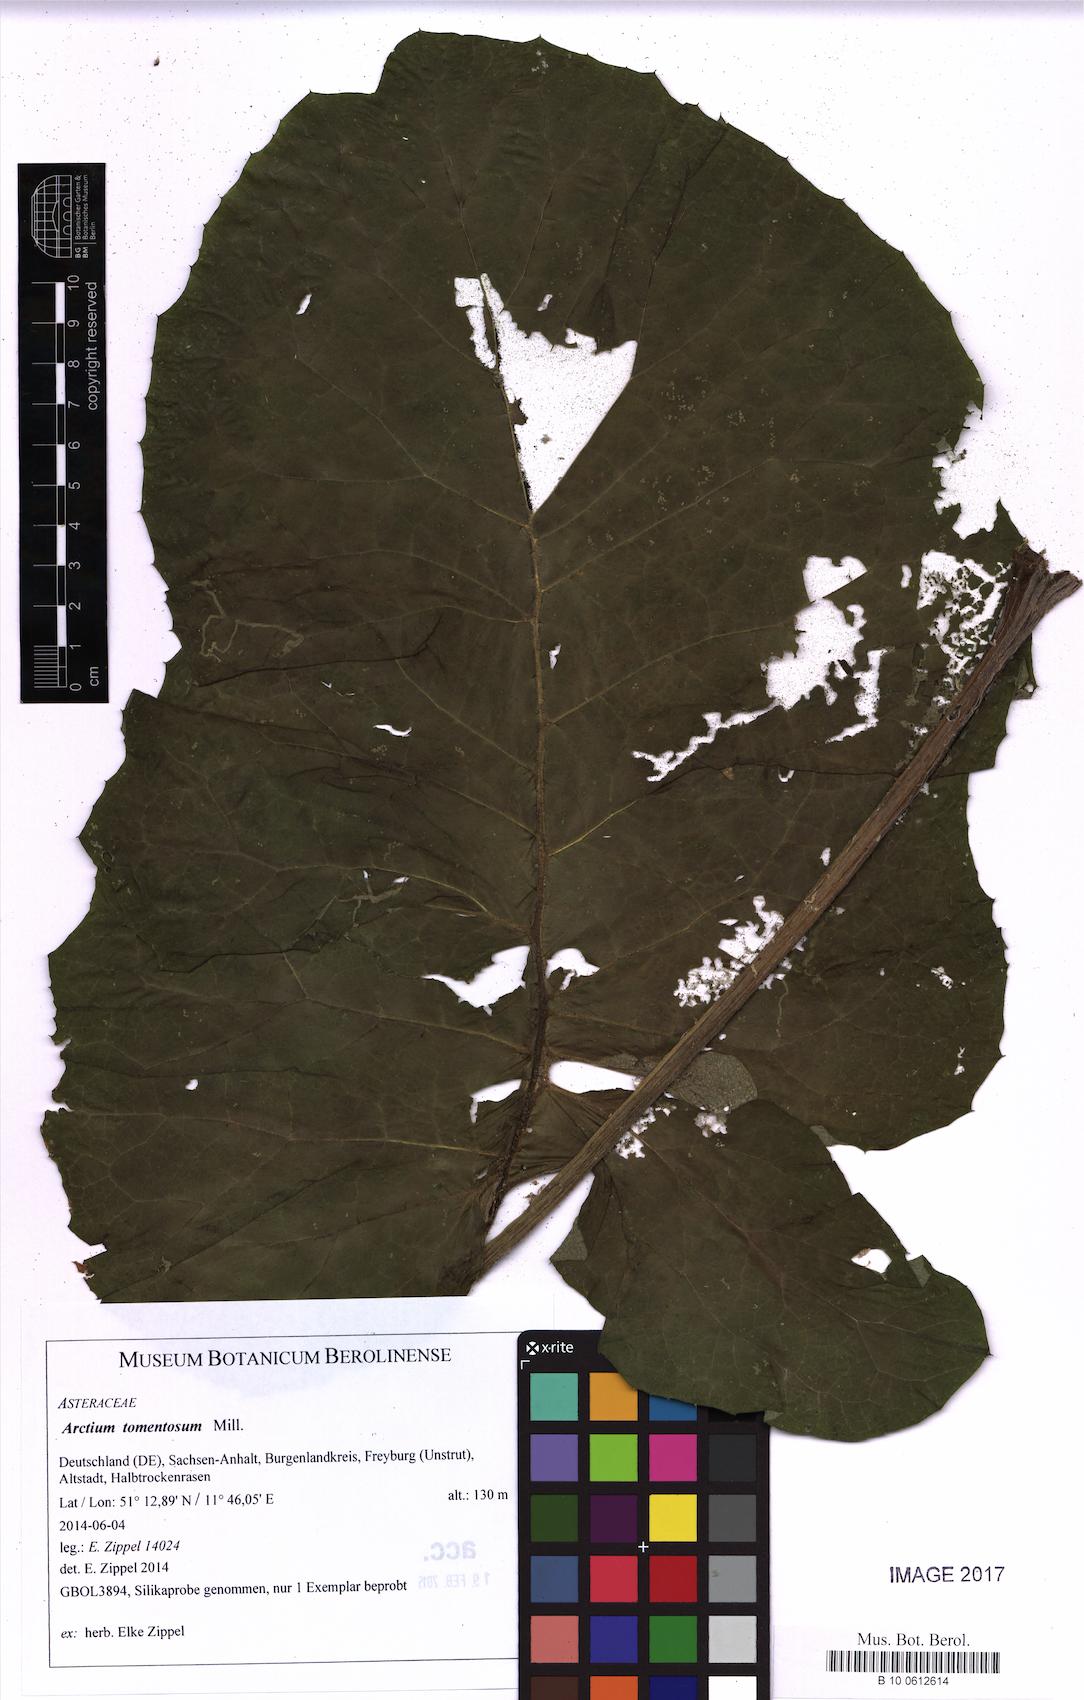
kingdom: Plantae
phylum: Tracheophyta
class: Magnoliopsida
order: Asterales
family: Asteraceae
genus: Arctium
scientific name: Arctium tomentosum
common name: Woolly burdock
